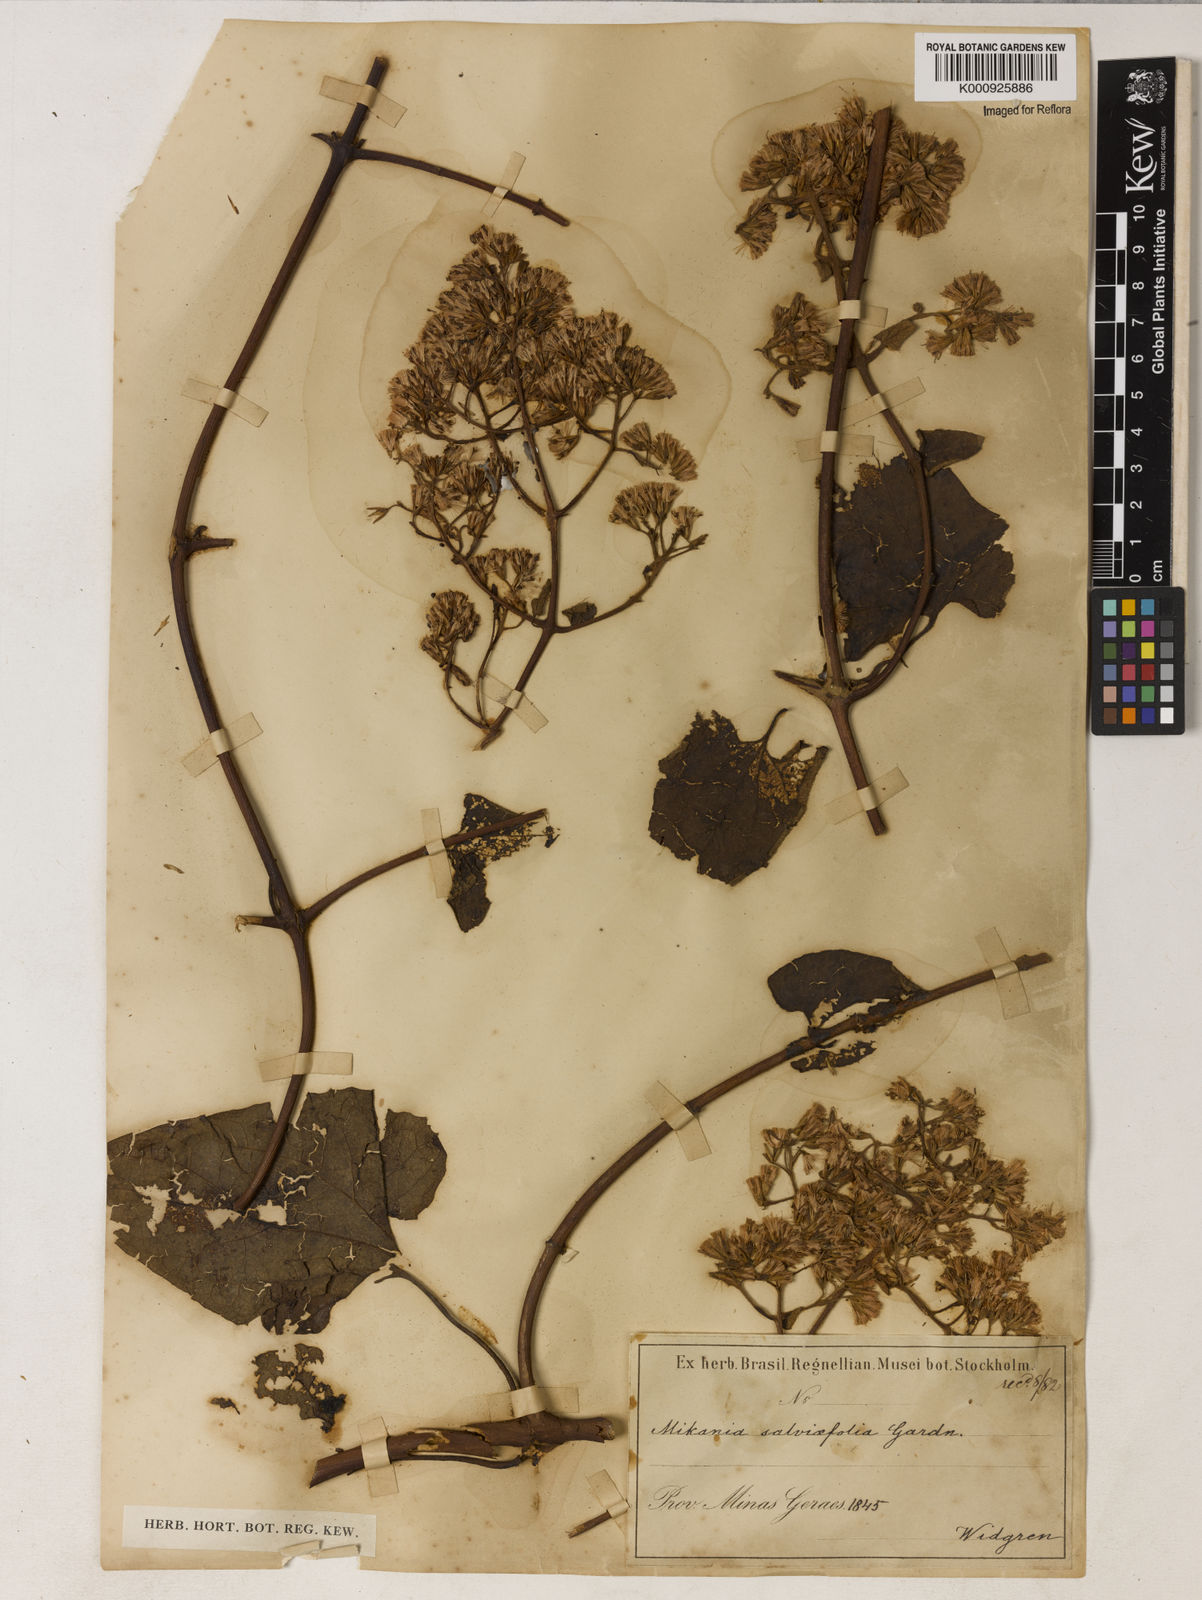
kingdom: Plantae
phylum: Tracheophyta
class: Magnoliopsida
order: Asterales
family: Asteraceae
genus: Mikania
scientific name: Mikania
